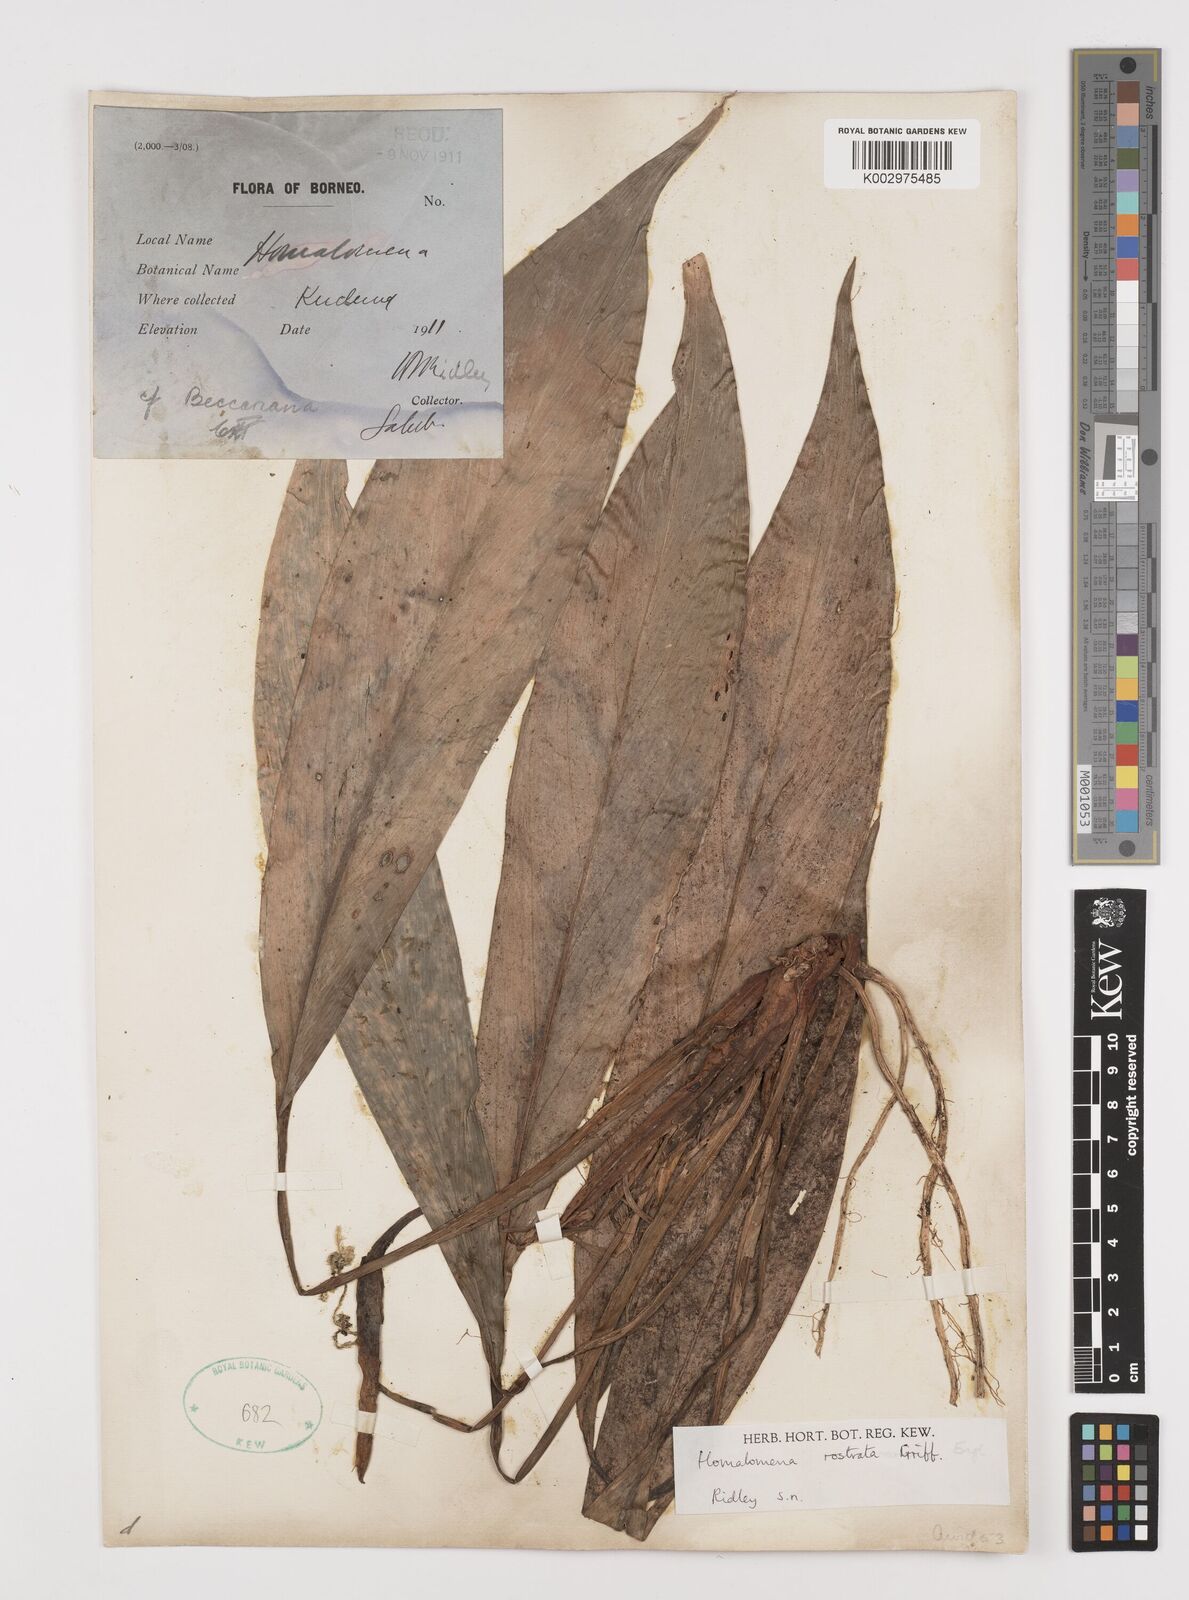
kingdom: Plantae
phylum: Tracheophyta
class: Liliopsida
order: Alismatales
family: Araceae
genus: Homalomena
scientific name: Homalomena rostrata
